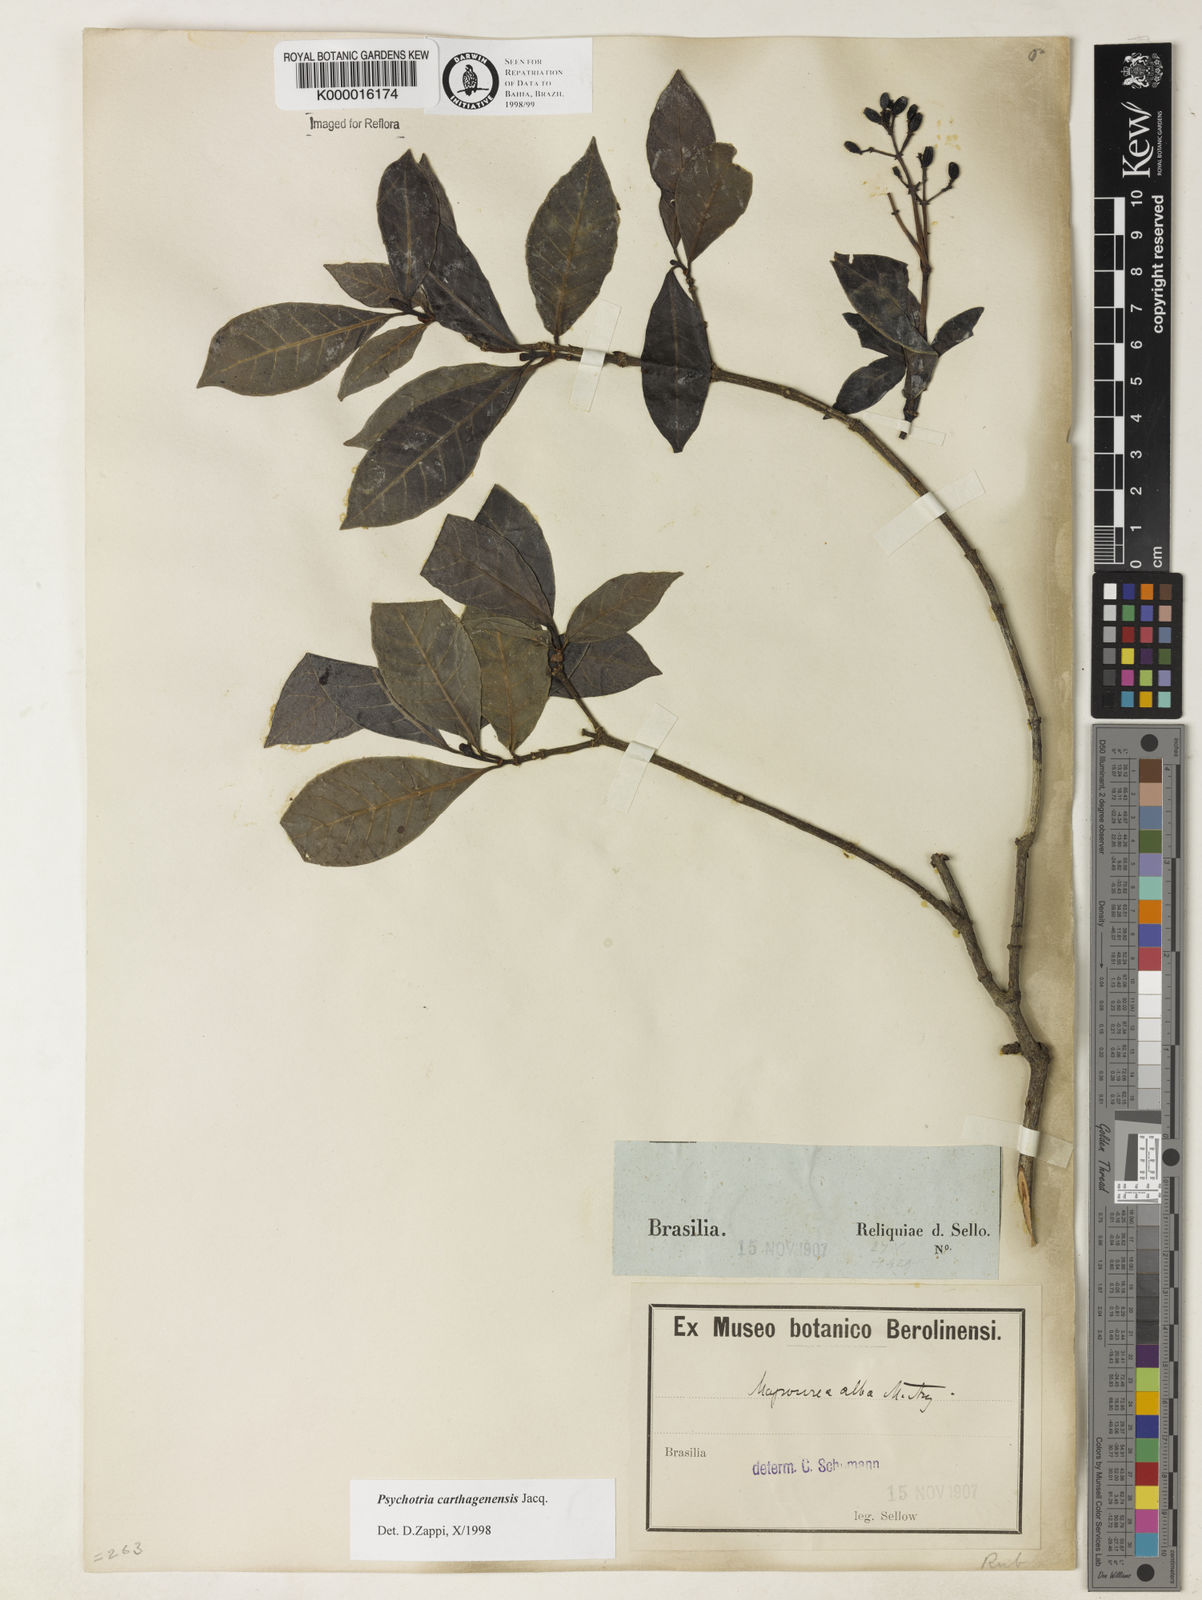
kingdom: Plantae
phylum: Tracheophyta
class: Magnoliopsida
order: Gentianales
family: Rubiaceae
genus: Psychotria
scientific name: Psychotria carthagenensis
